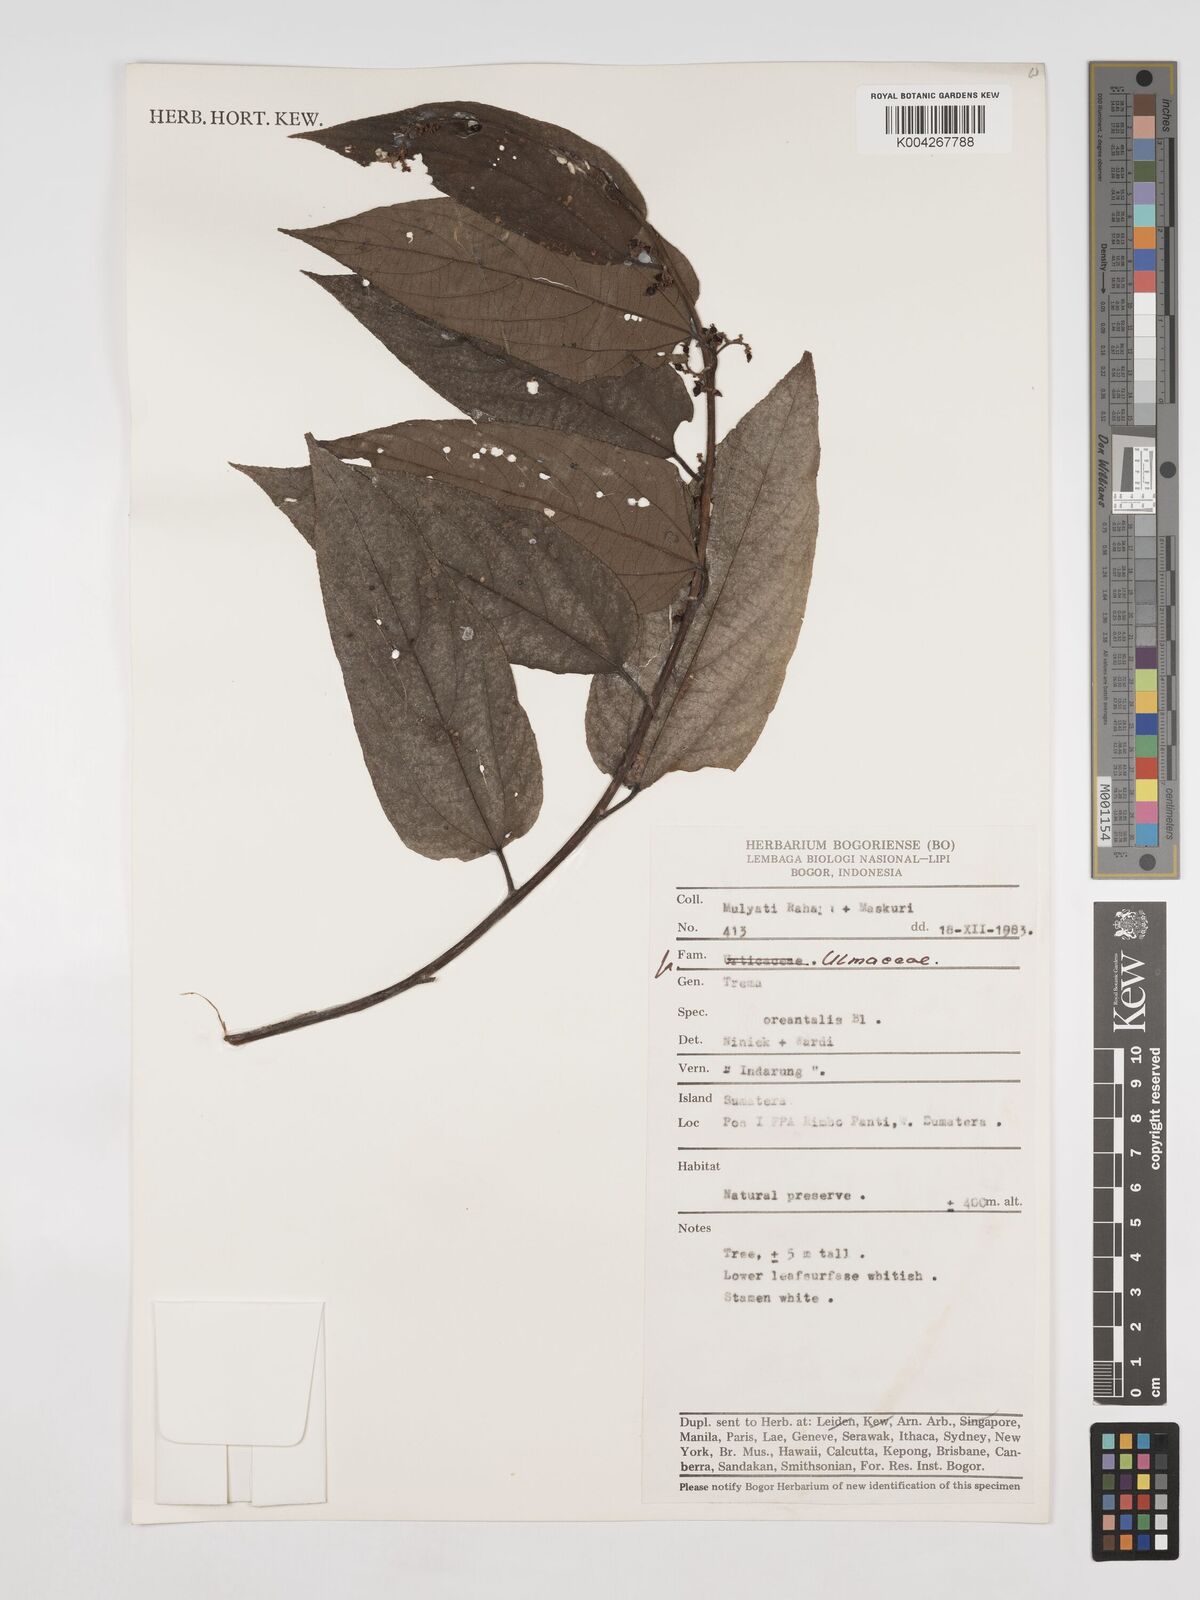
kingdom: Plantae
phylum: Tracheophyta
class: Magnoliopsida
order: Rosales
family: Cannabaceae
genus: Trema
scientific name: Trema orientale
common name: Indian charcoal tree
